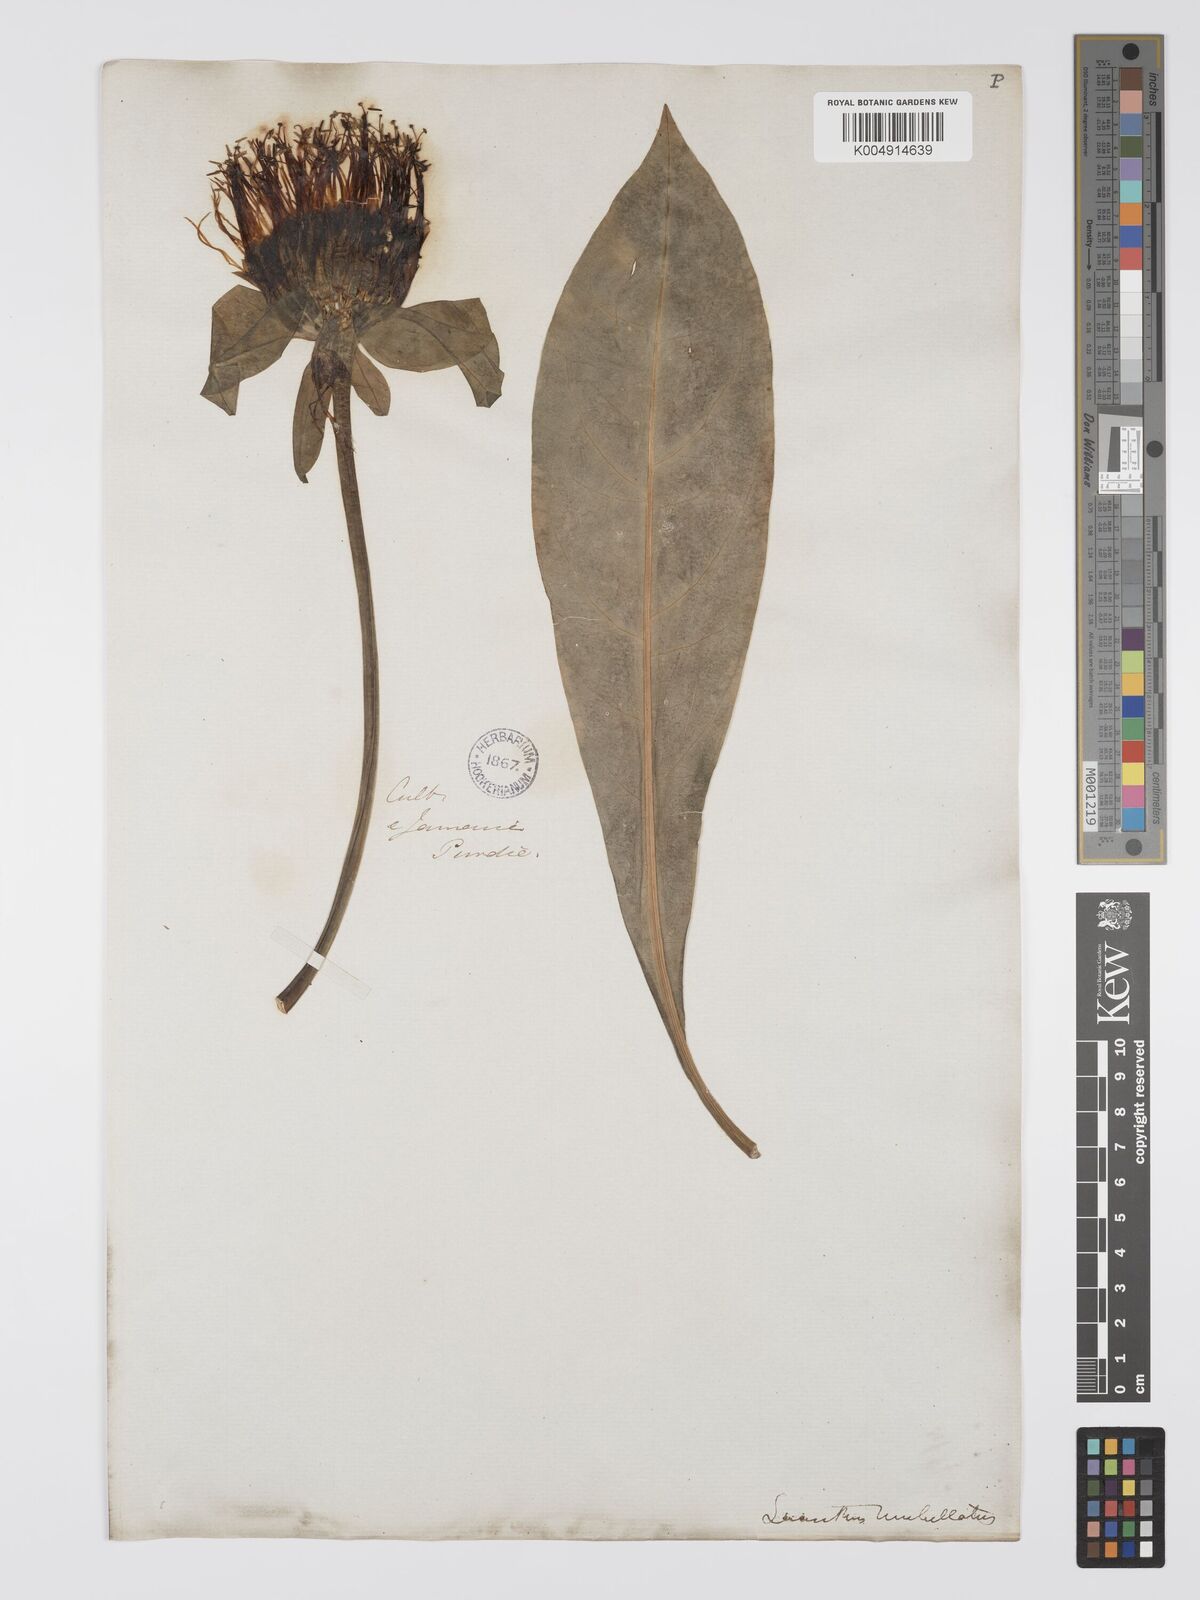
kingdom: Plantae
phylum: Tracheophyta
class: Magnoliopsida
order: Gentianales
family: Gentianaceae
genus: Lisianthus
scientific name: Lisianthus umbellatus
